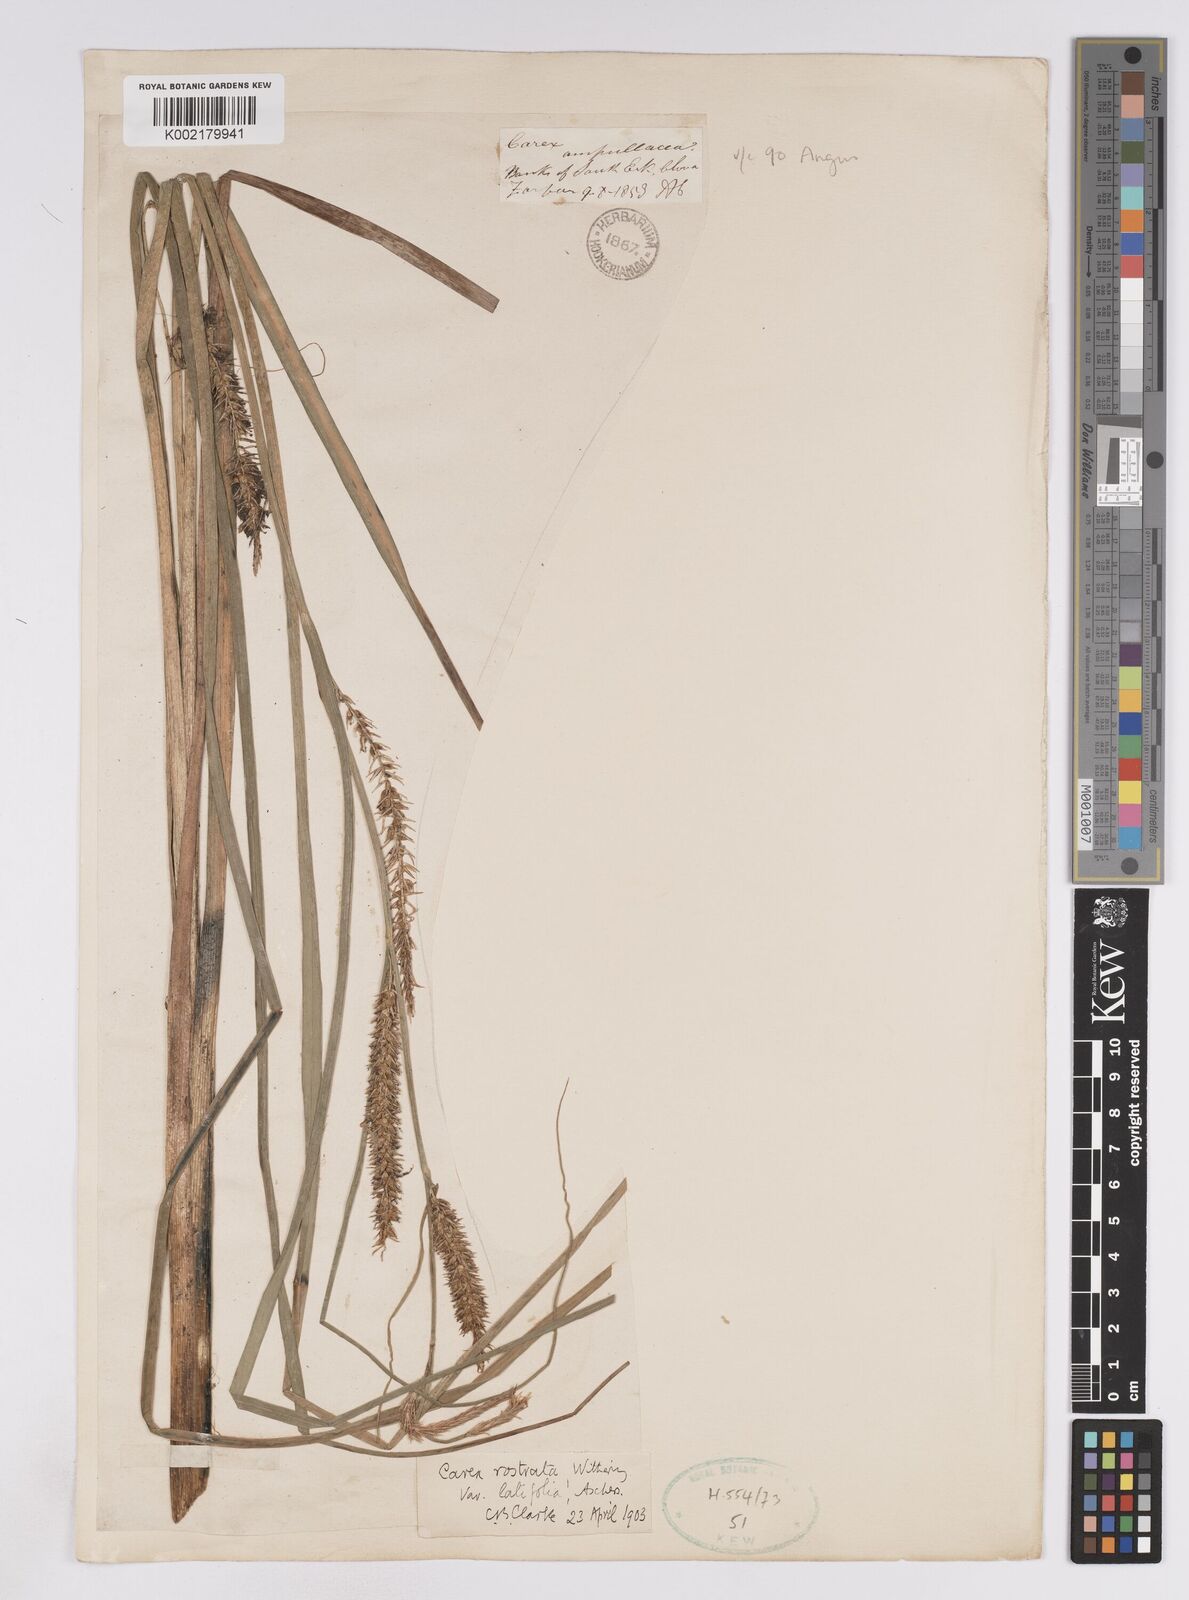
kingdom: Plantae
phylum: Tracheophyta
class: Liliopsida
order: Poales
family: Cyperaceae
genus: Carex
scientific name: Carex utriculata
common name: Beaked sedge
